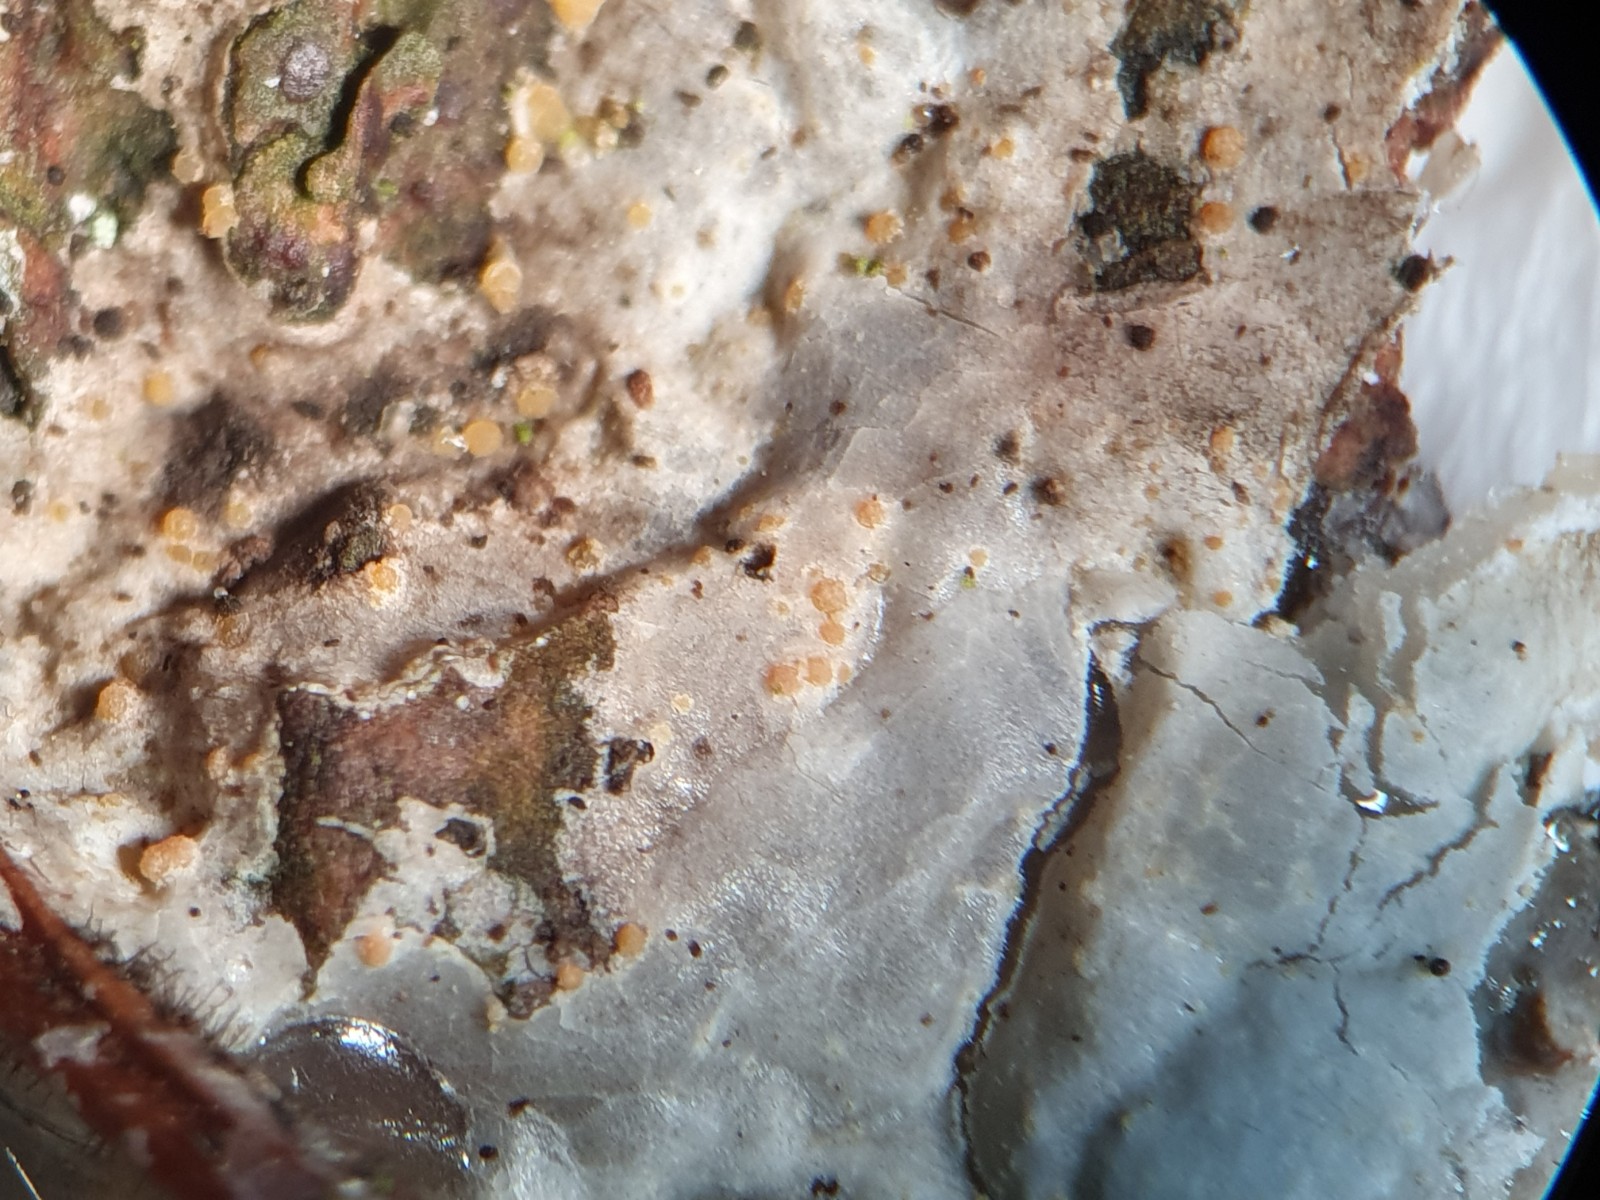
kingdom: Fungi
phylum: Ascomycota
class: Sareomycetes
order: Sareales
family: Sareaceae
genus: Sarea
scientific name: Sarea resinae
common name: orangegul harpiksskive
